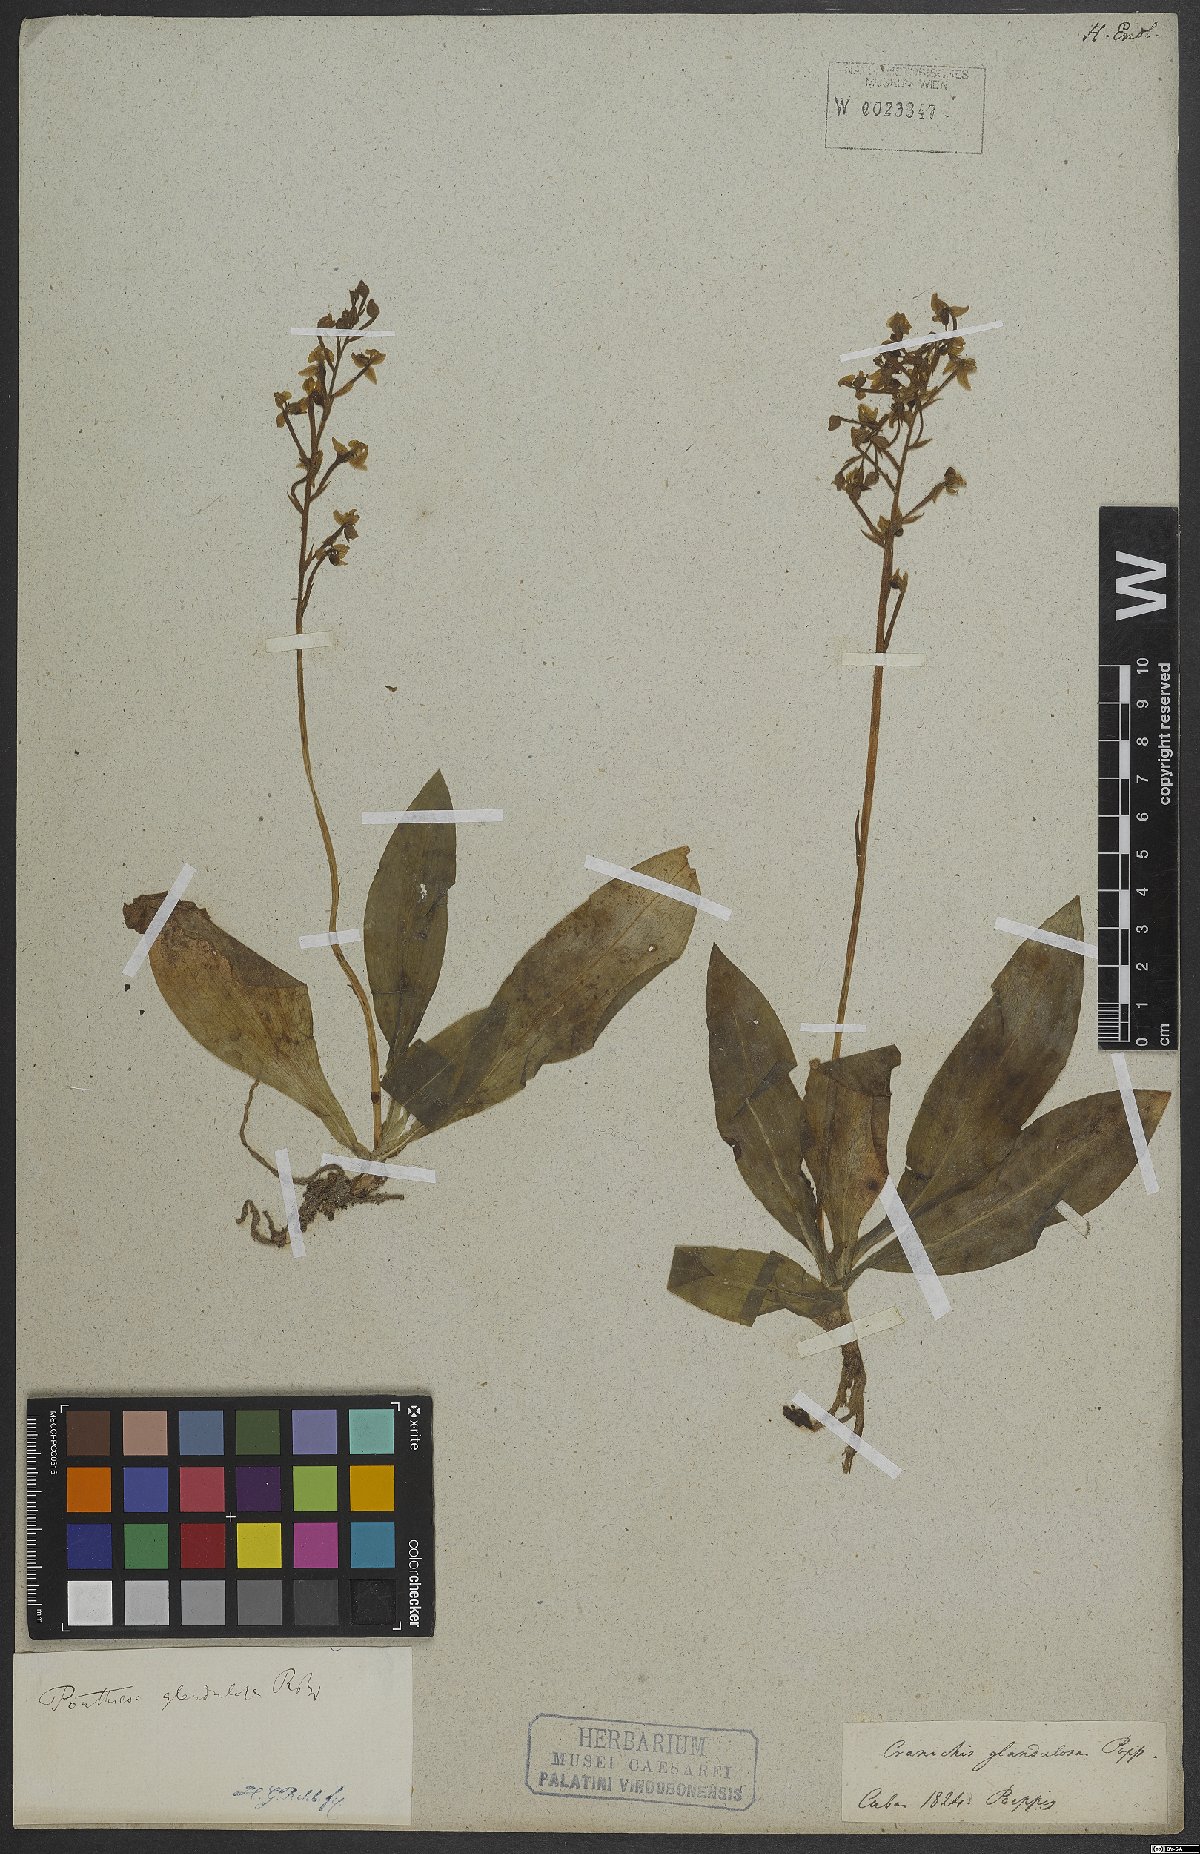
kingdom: Plantae
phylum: Tracheophyta
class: Liliopsida
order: Asparagales
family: Orchidaceae
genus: Ponthieva
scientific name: Ponthieva glandulosa
